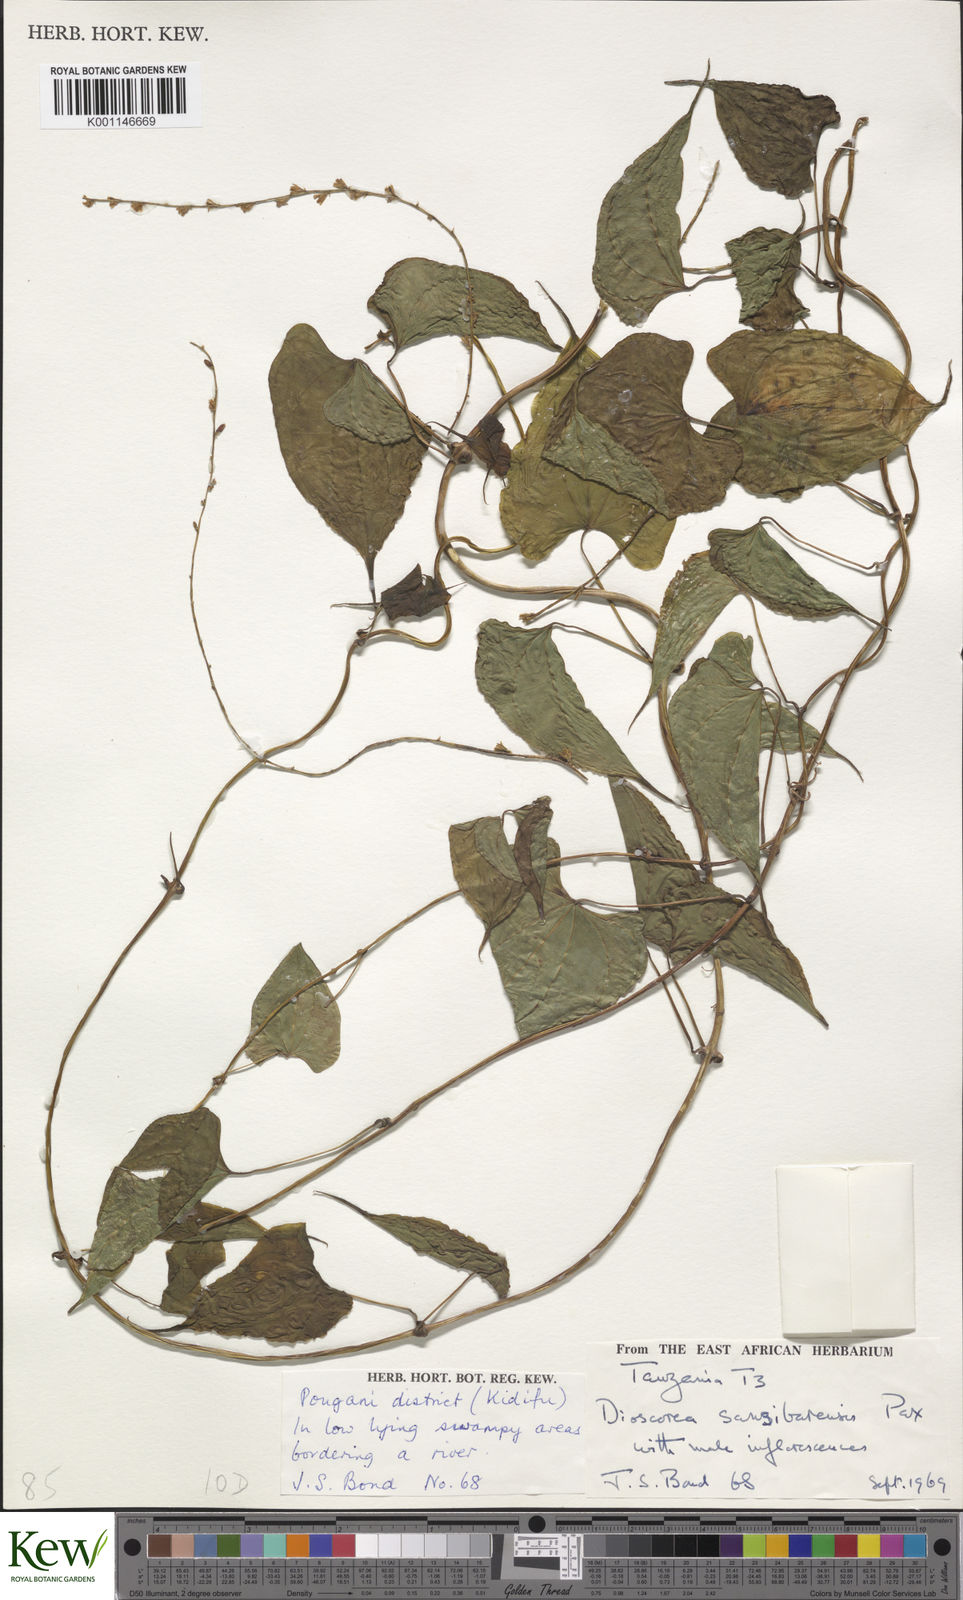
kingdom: Plantae
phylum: Tracheophyta
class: Liliopsida
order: Dioscoreales
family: Dioscoreaceae
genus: Dioscorea
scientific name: Dioscorea sansibarensis
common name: Zanzibar yam
